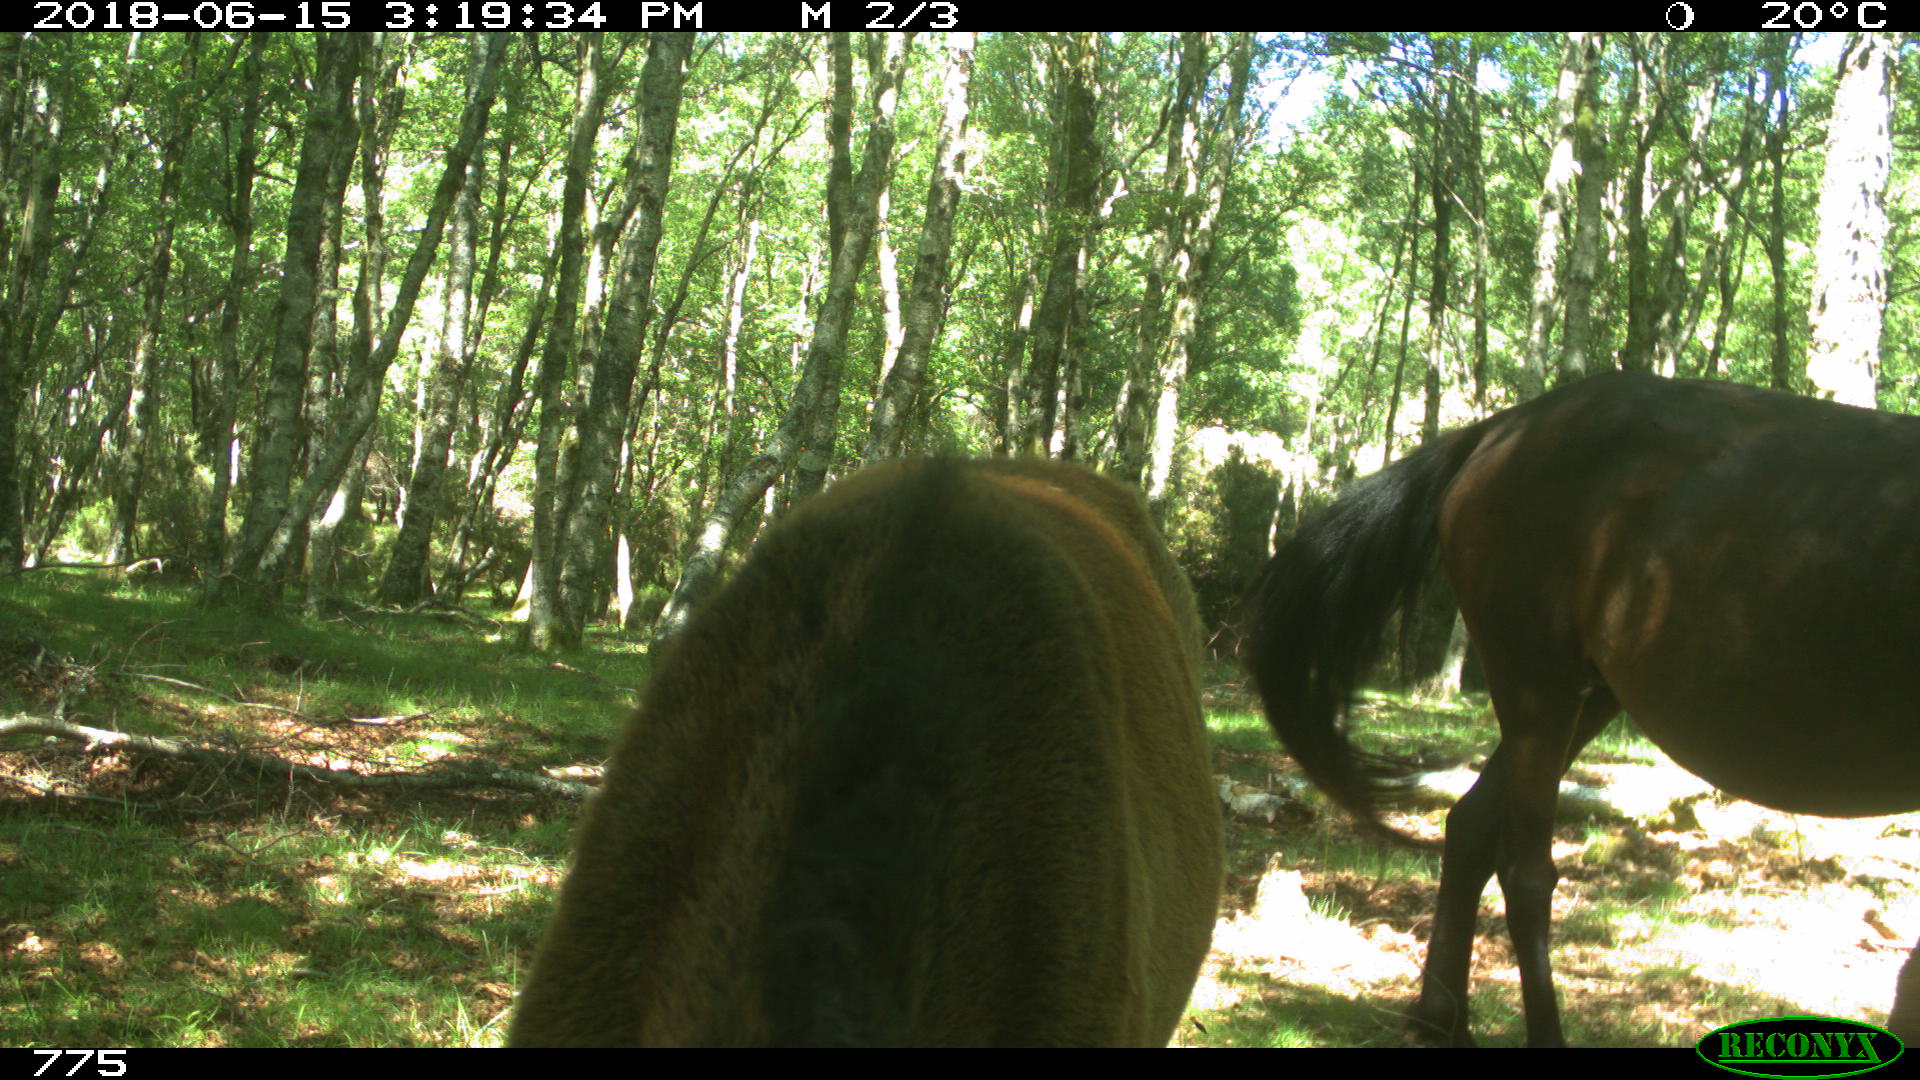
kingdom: Animalia
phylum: Chordata
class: Mammalia
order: Perissodactyla
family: Equidae
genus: Equus
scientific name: Equus caballus
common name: Horse
